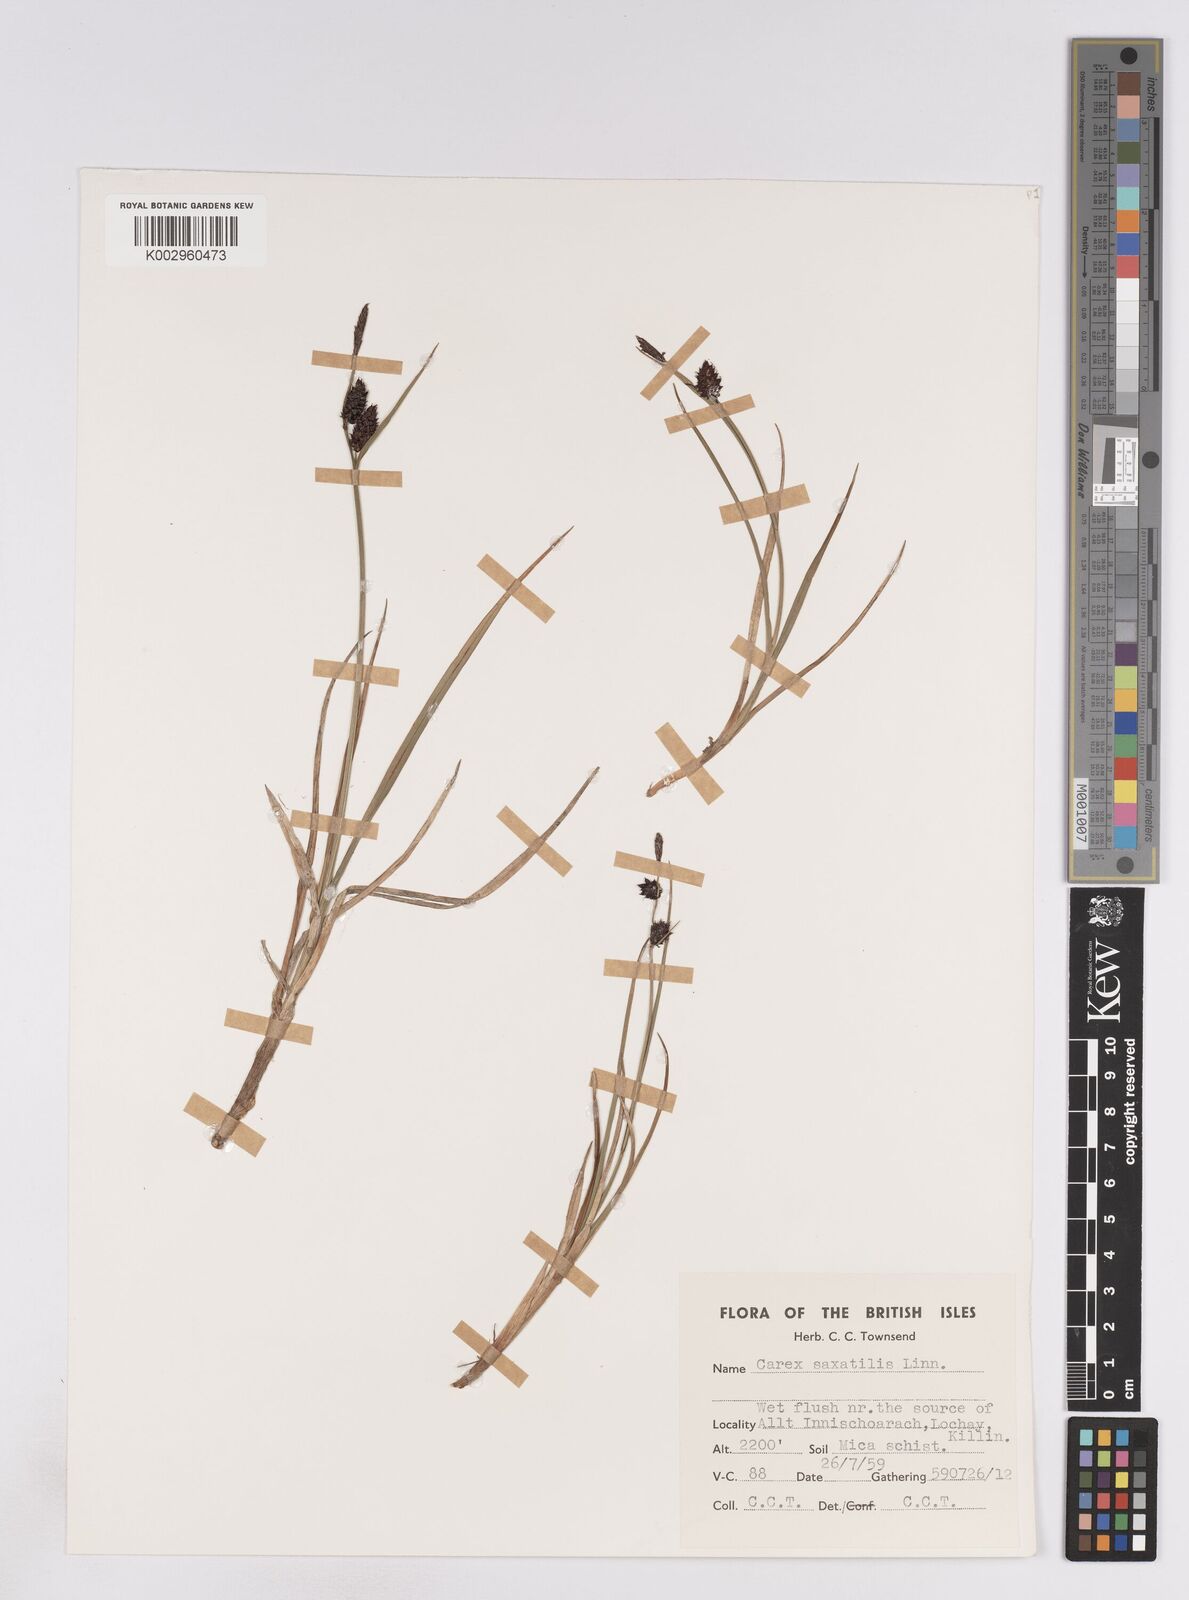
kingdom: Plantae
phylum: Tracheophyta
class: Liliopsida
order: Poales
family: Cyperaceae
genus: Carex
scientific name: Carex saxatilis
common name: Russet sedge
